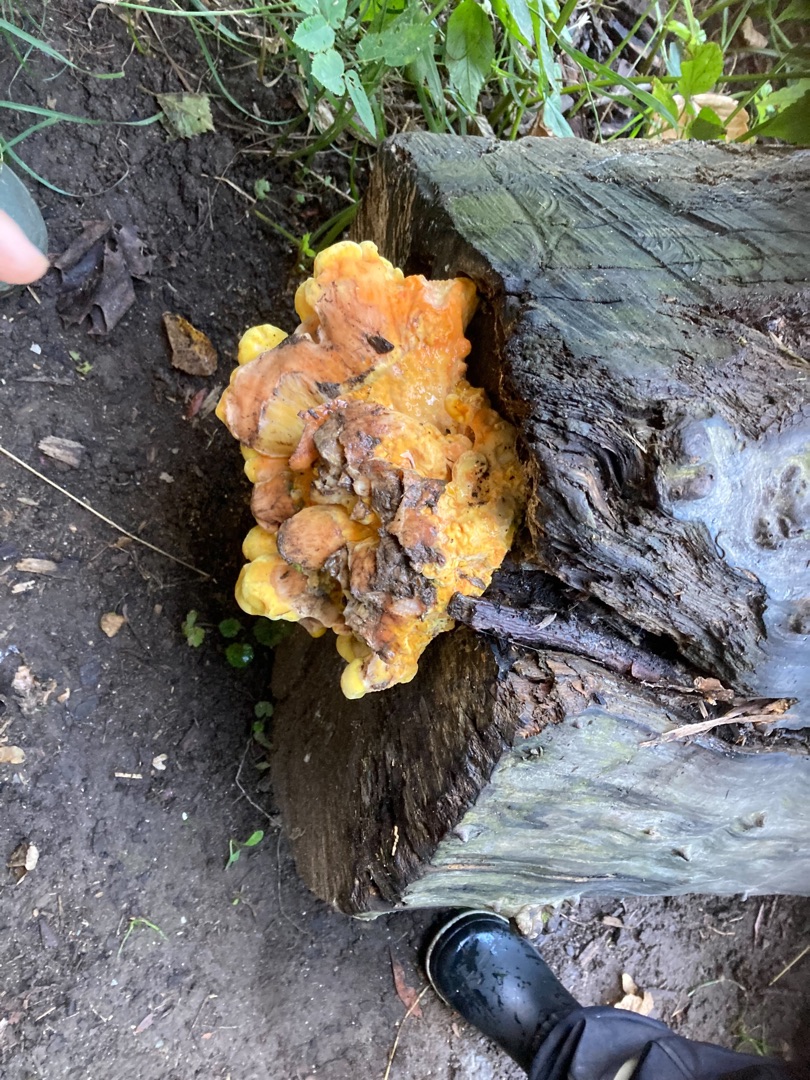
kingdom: Fungi
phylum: Basidiomycota
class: Agaricomycetes
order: Polyporales
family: Laetiporaceae
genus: Laetiporus
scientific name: Laetiporus sulphureus
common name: Svovlporesvamp
